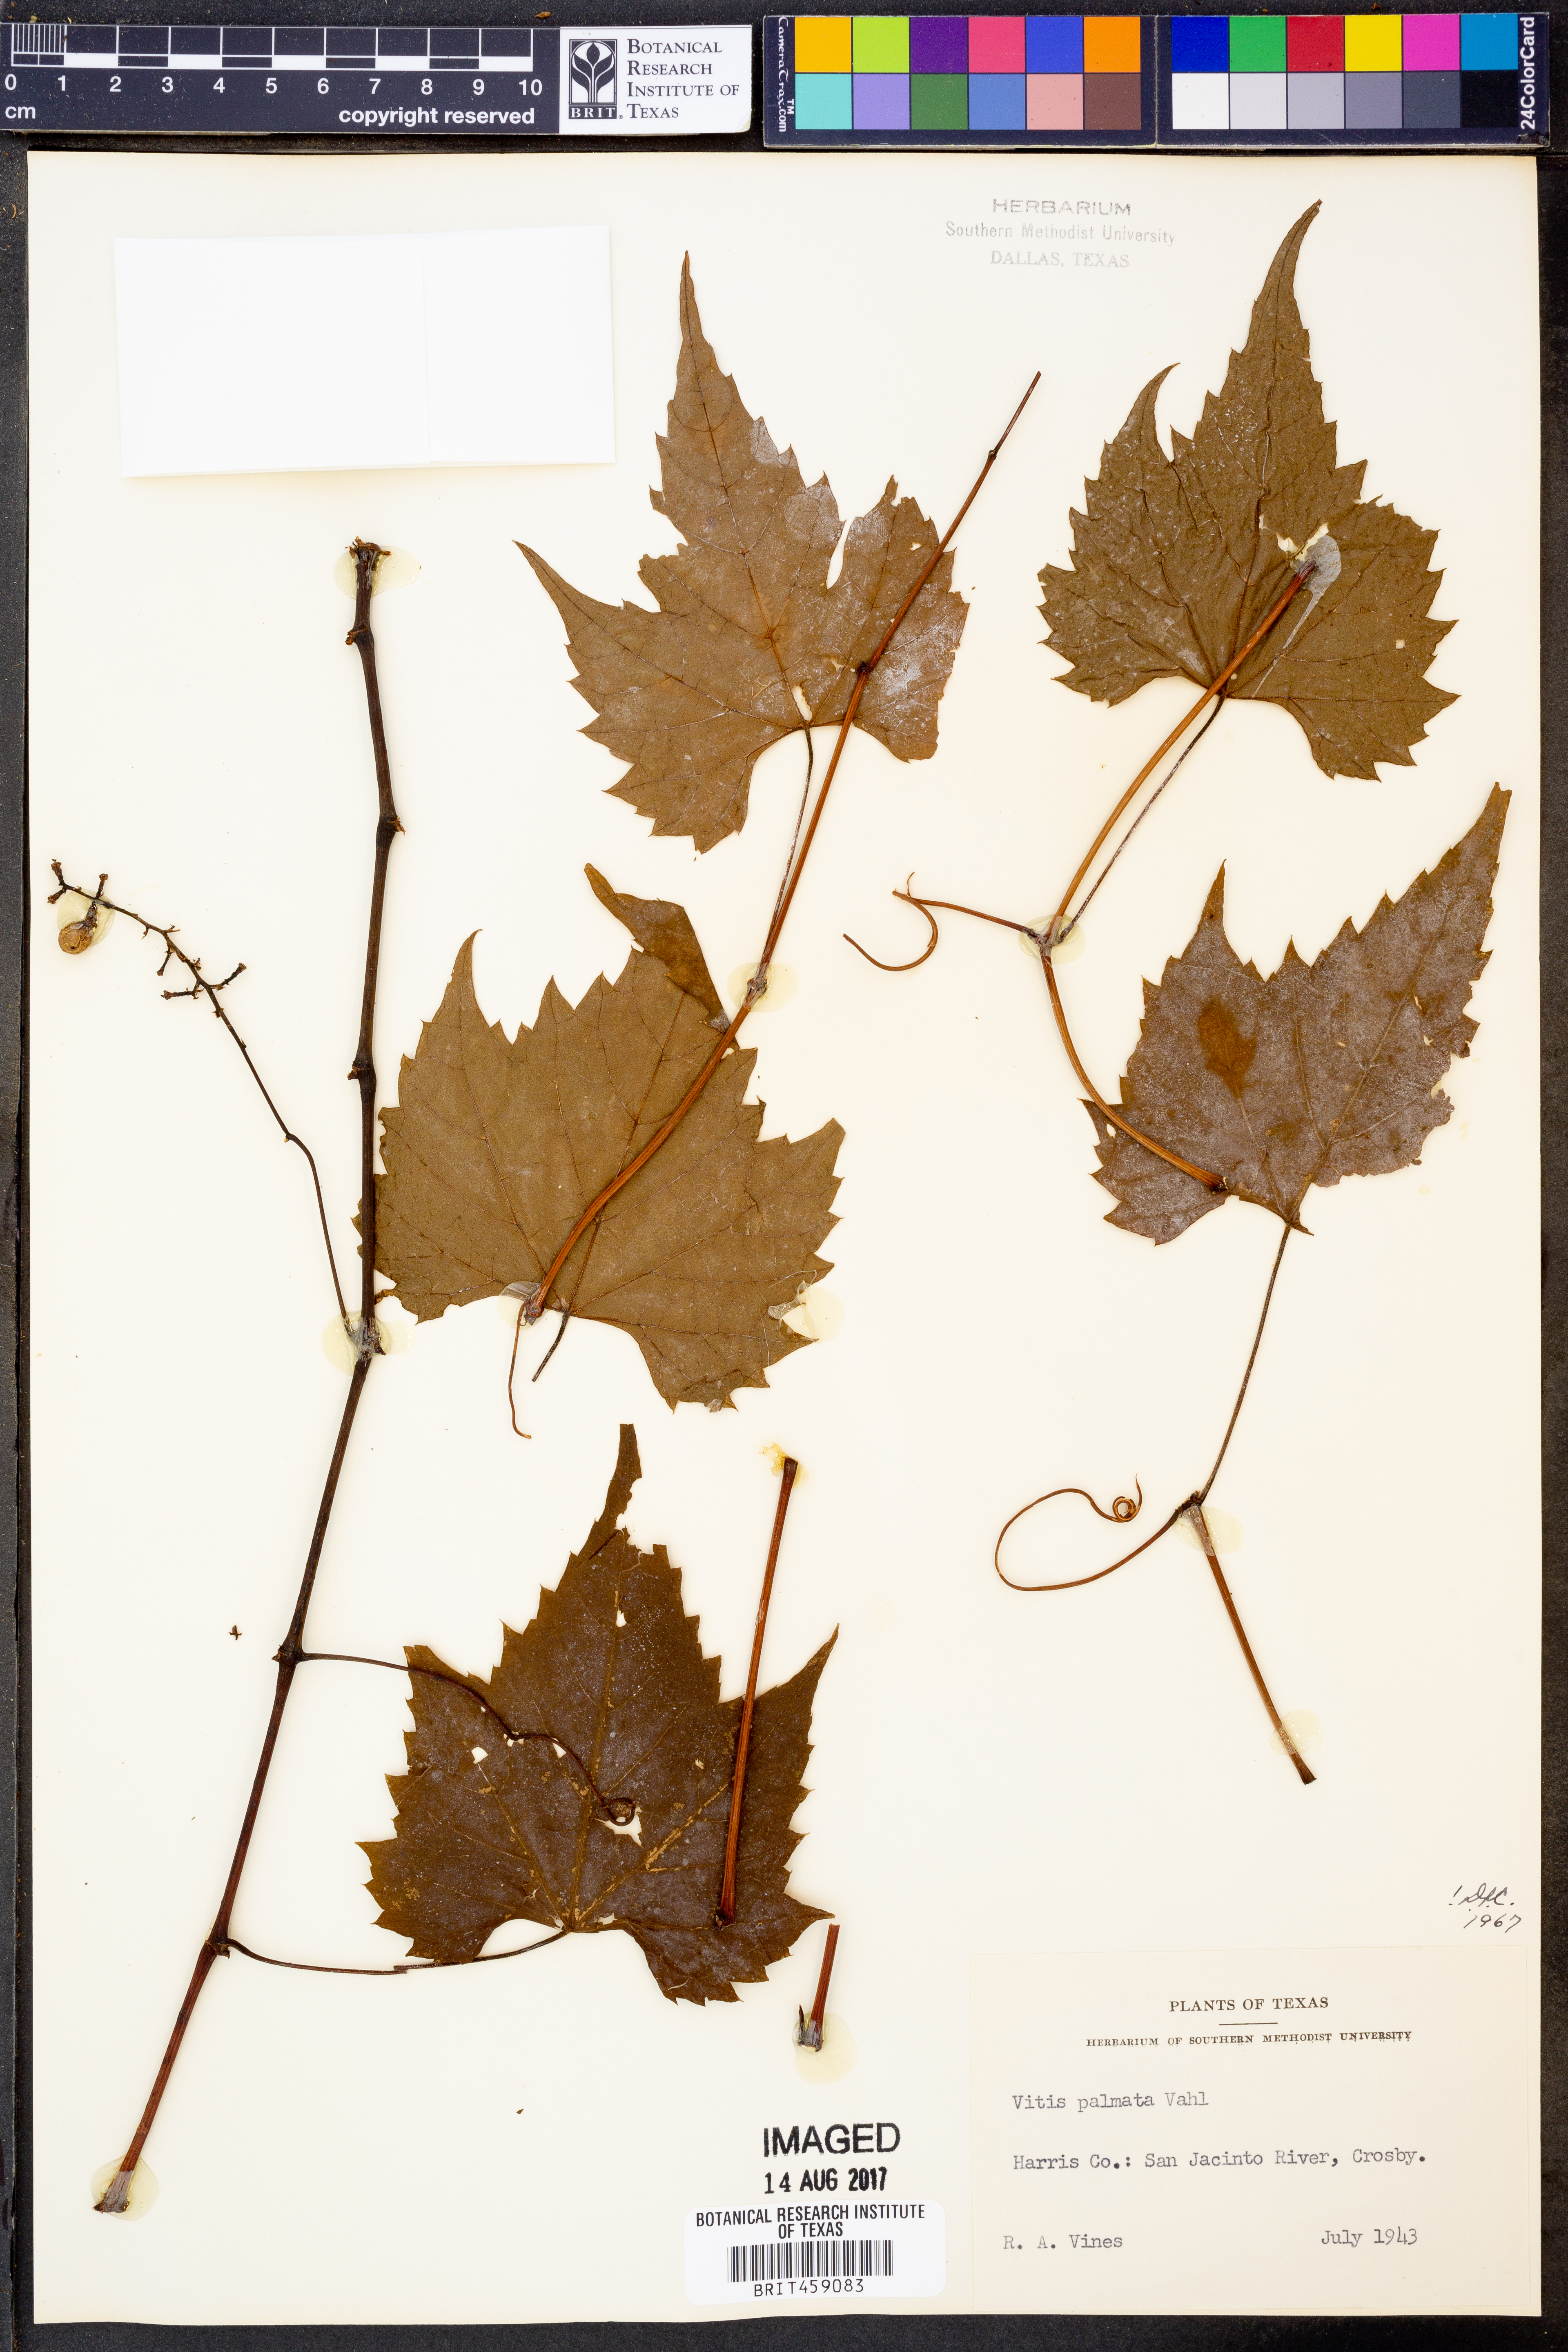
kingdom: Plantae
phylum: Tracheophyta
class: Magnoliopsida
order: Vitales
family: Vitaceae
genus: Vitis
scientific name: Vitis palmata
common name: Catbird grape
